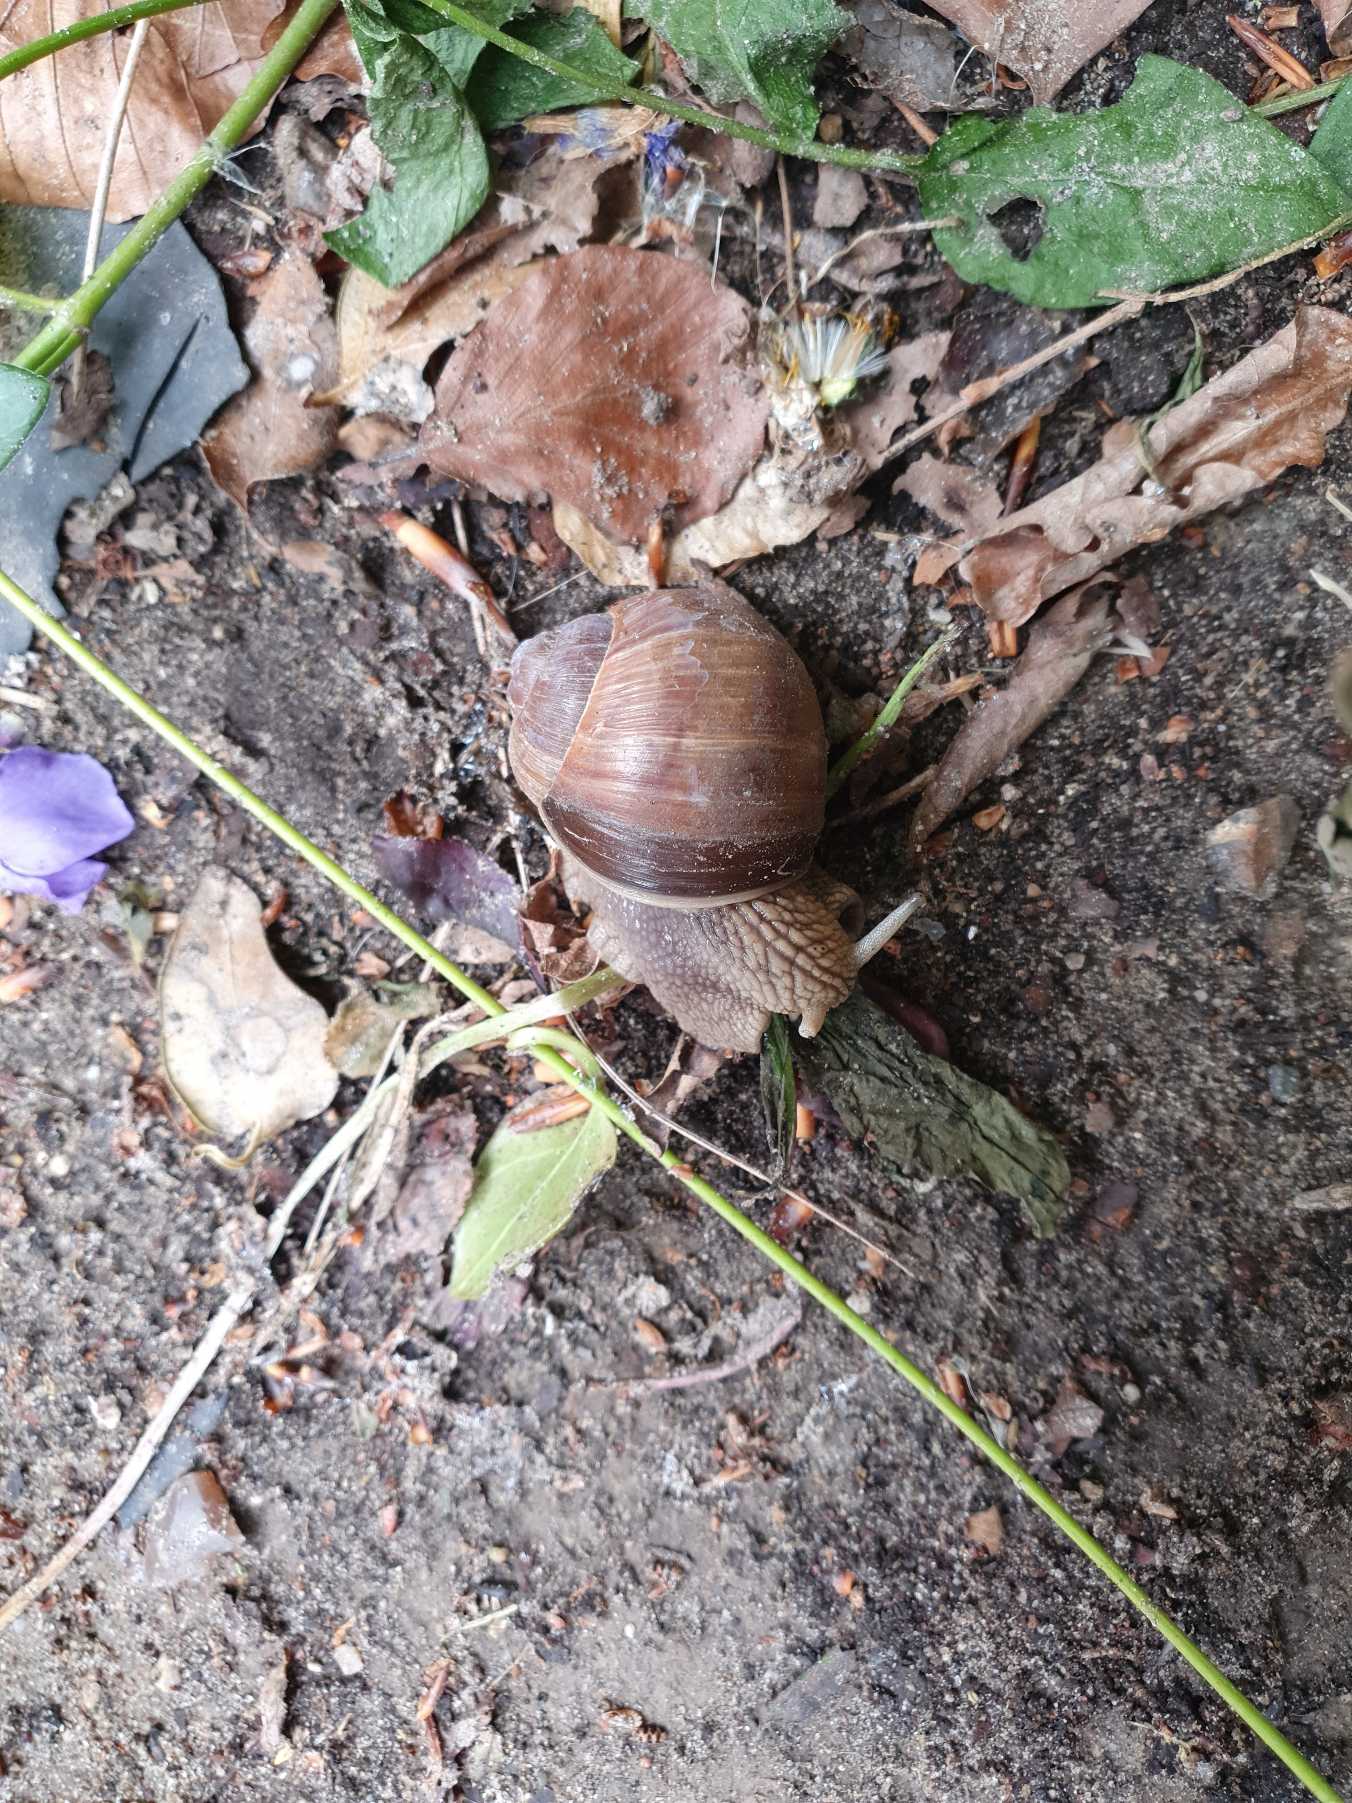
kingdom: Animalia
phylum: Mollusca
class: Gastropoda
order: Stylommatophora
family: Helicidae
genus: Helix
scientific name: Helix pomatia
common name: Vinbjergsnegl
